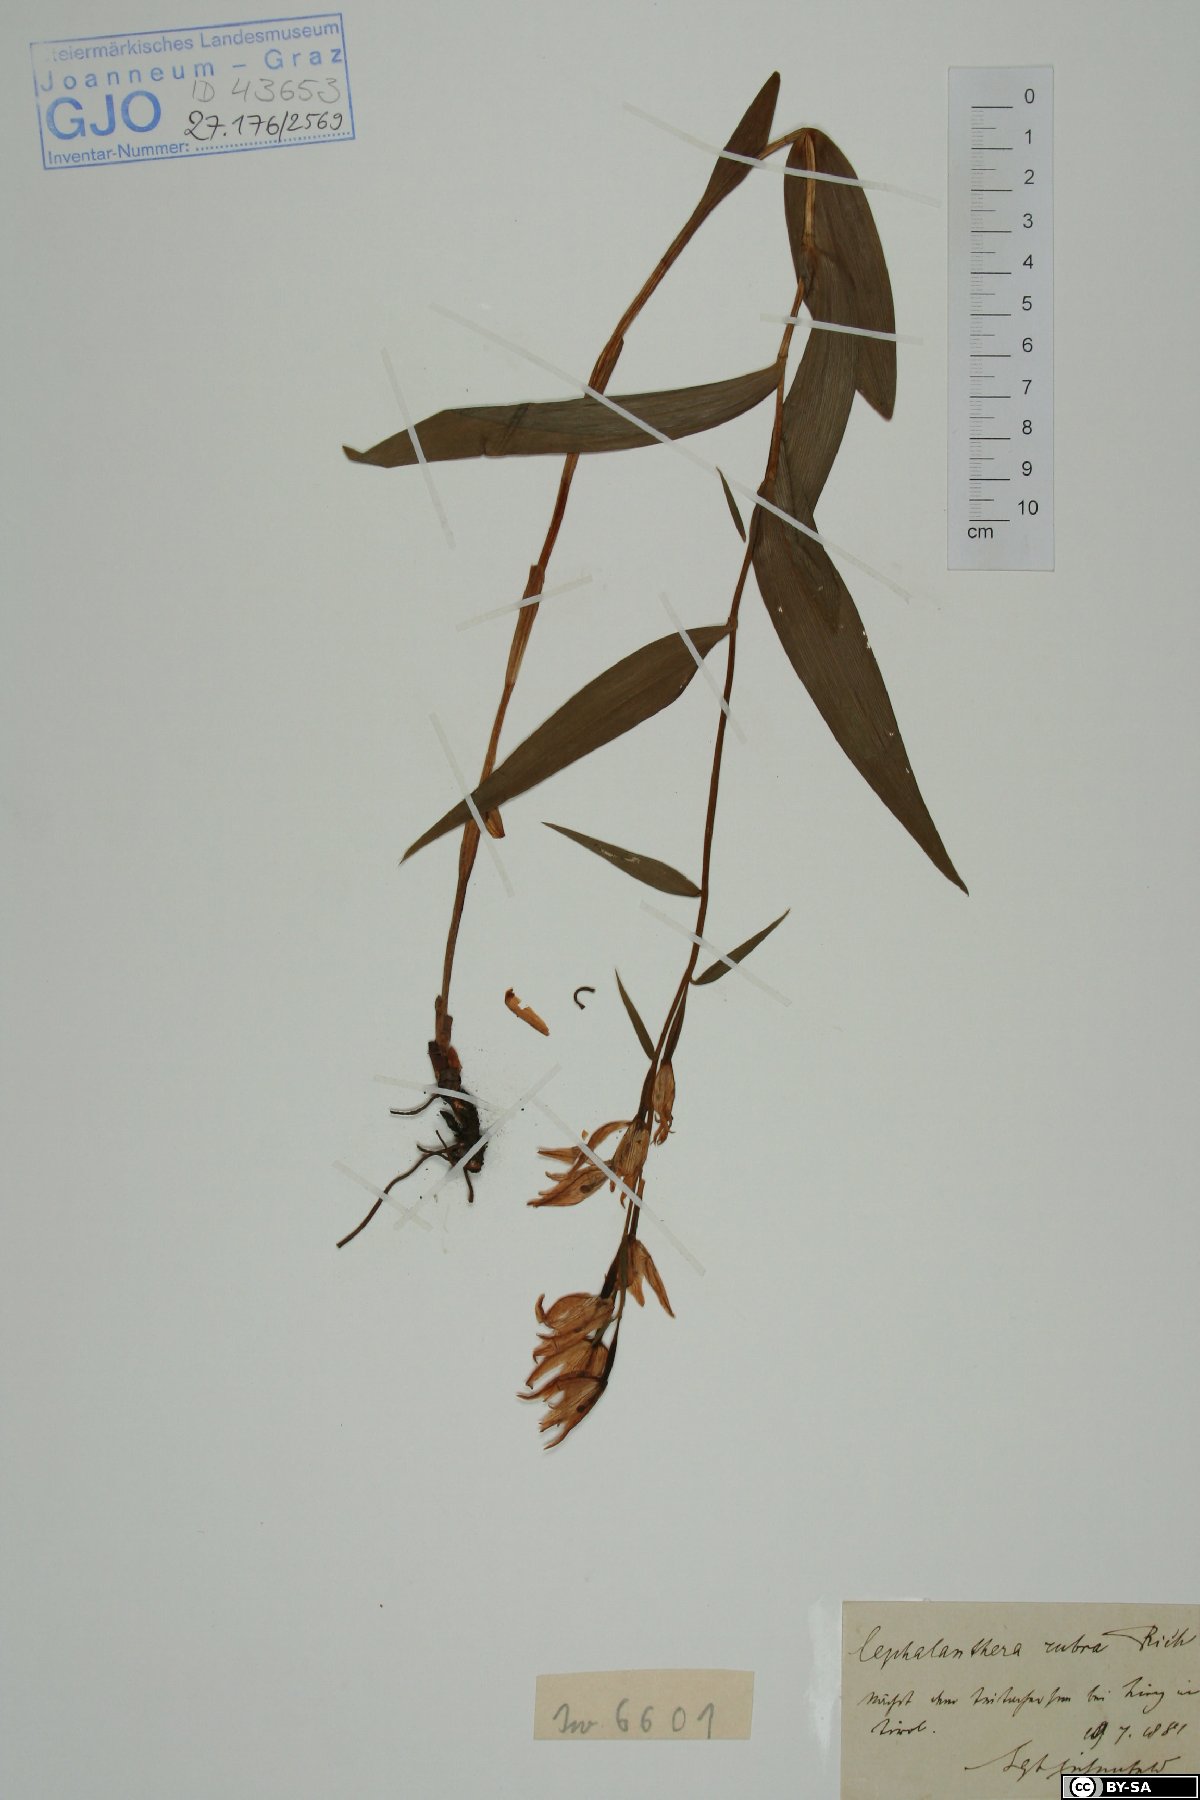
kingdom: Plantae
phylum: Tracheophyta
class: Liliopsida
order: Asparagales
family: Orchidaceae
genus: Cephalanthera
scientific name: Cephalanthera rubra
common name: Red helleborine
